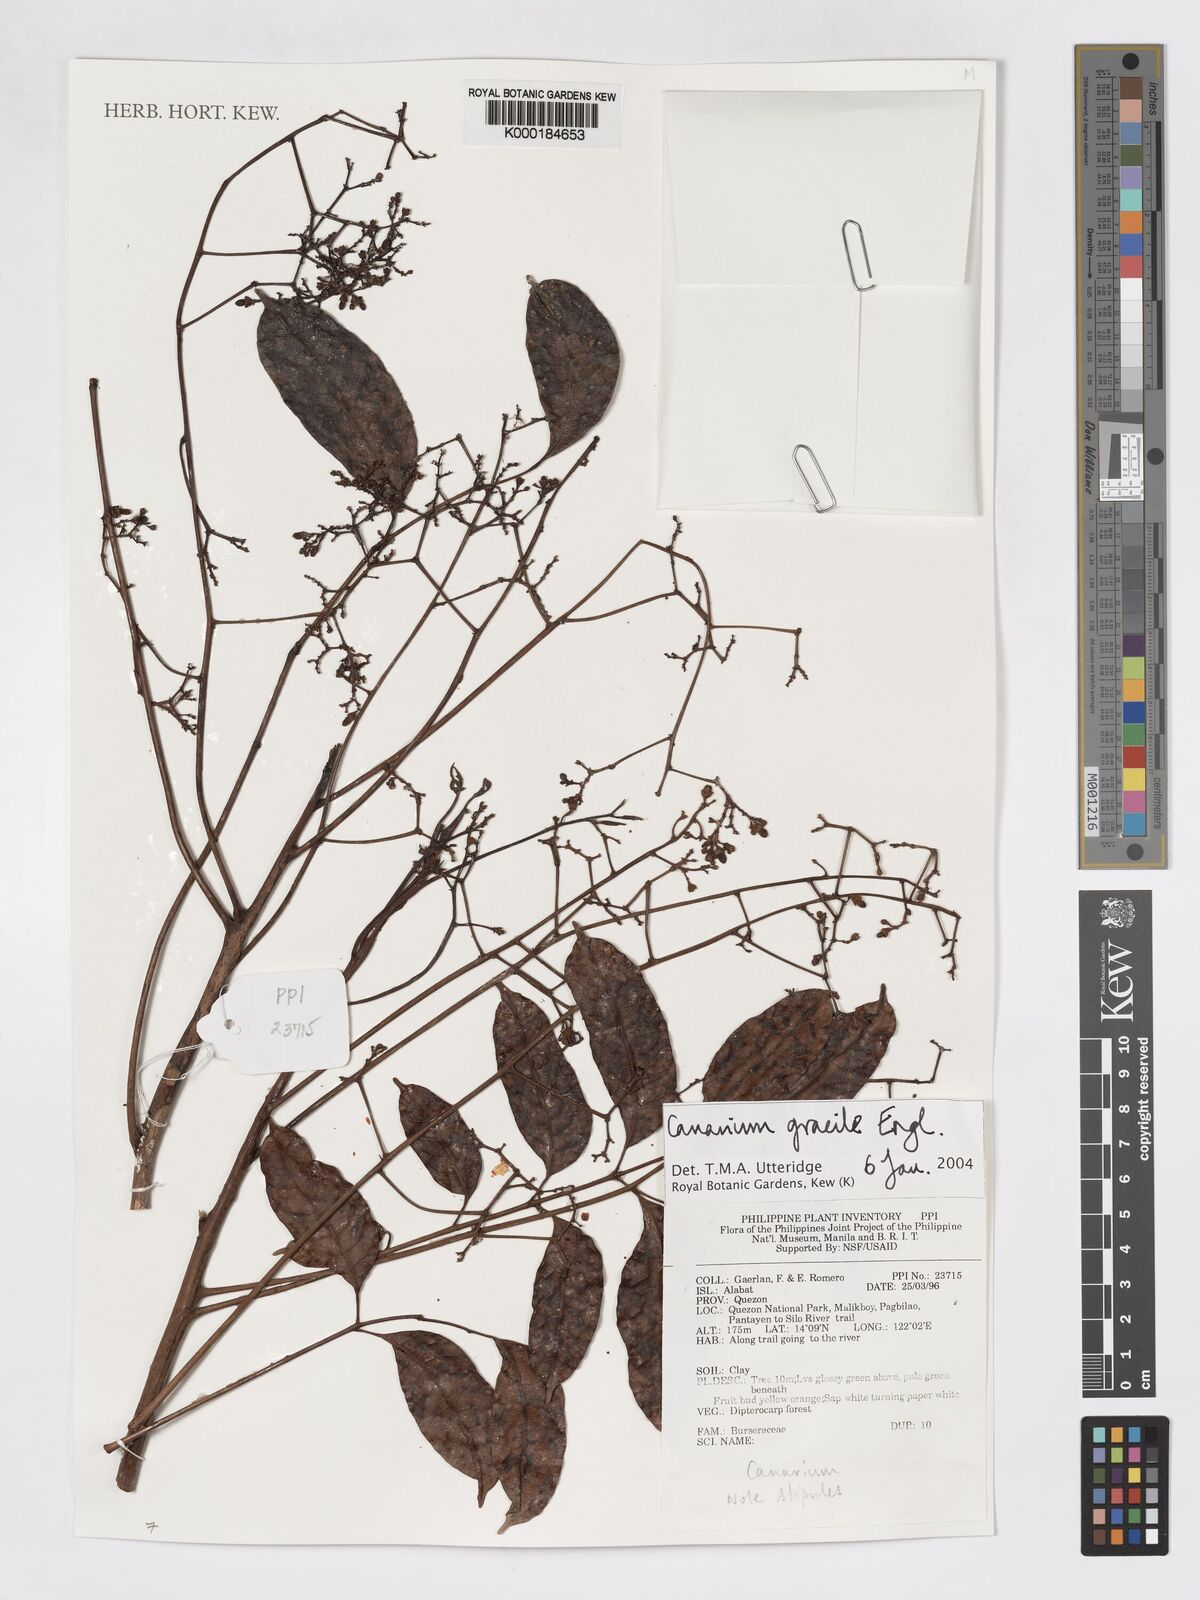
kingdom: Plantae
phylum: Tracheophyta
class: Magnoliopsida
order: Sapindales
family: Burseraceae
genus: Canarium
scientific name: Canarium gracile
